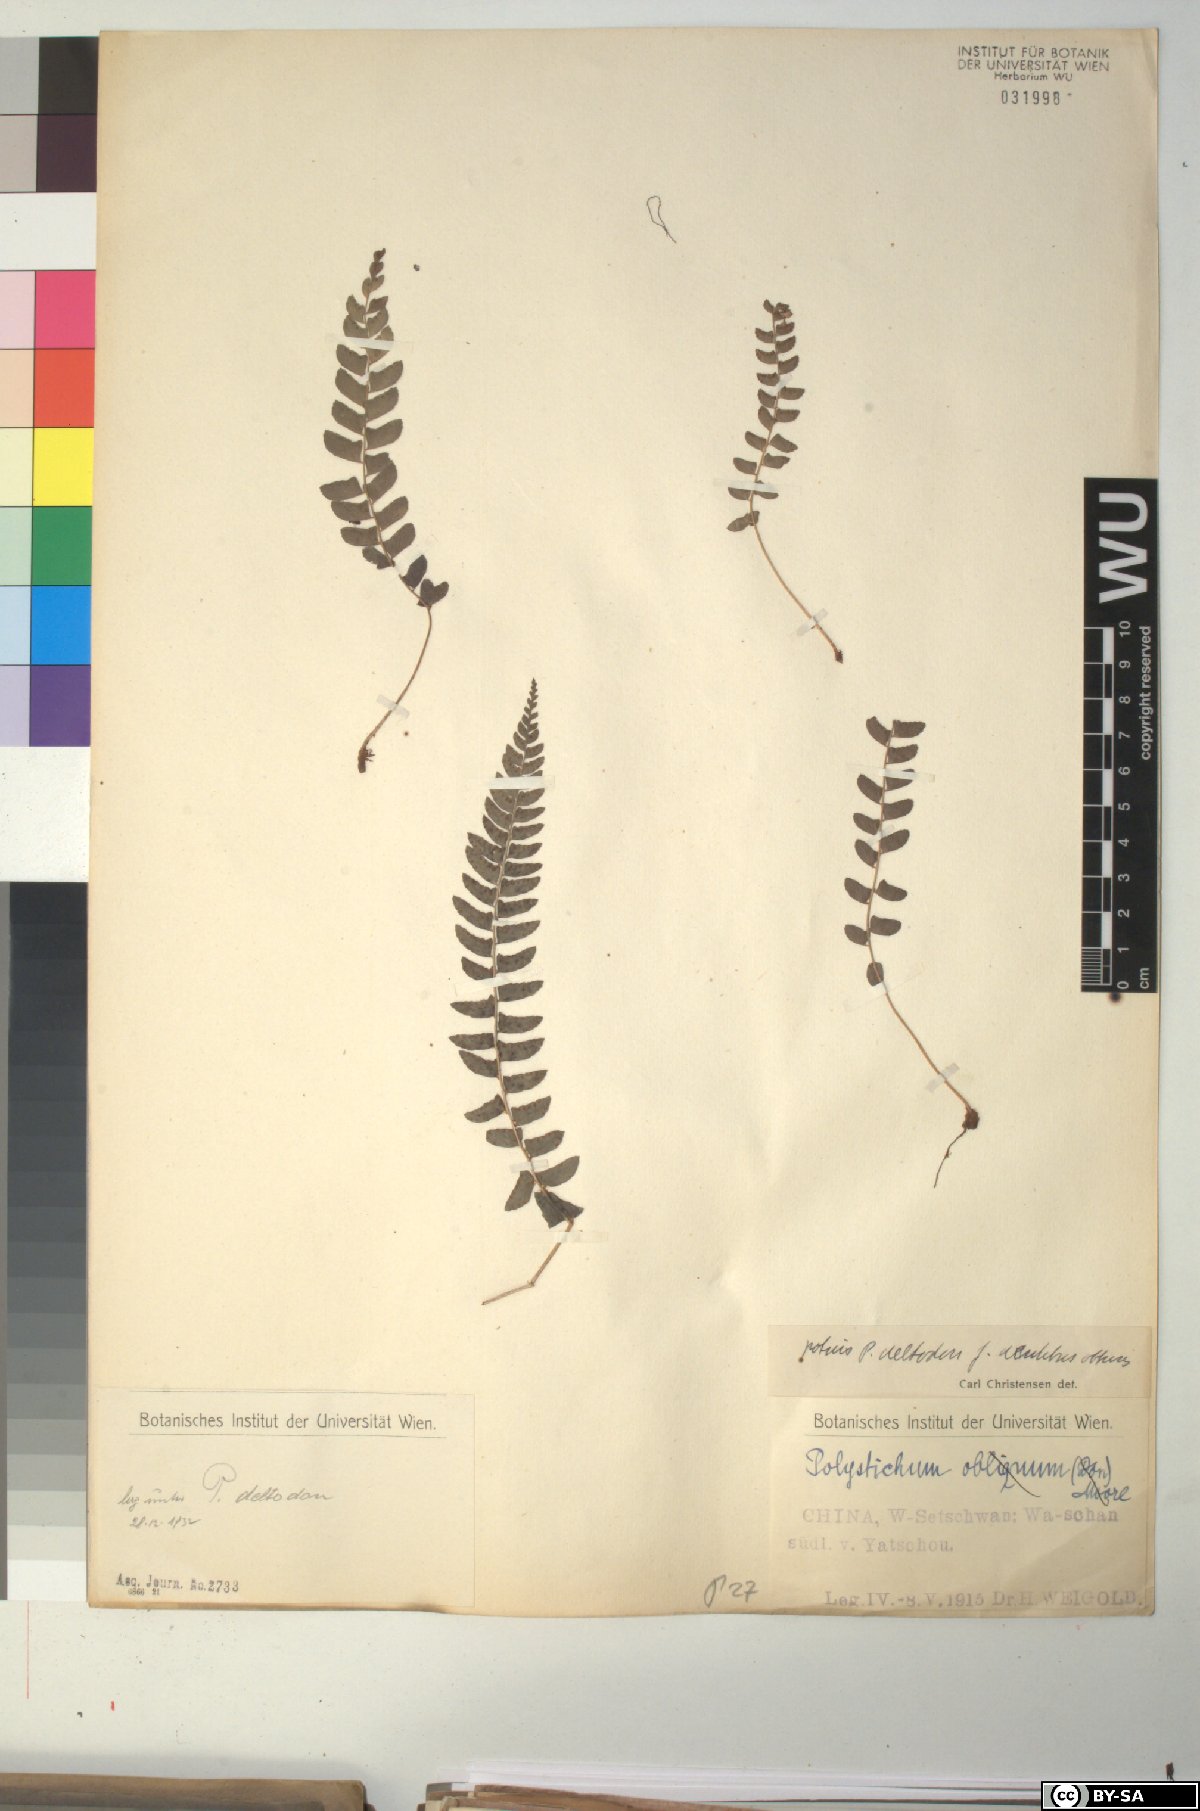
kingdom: Plantae
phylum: Tracheophyta
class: Polypodiopsida
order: Polypodiales
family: Dryopteridaceae
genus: Polystichum
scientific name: Polystichum deltodon
